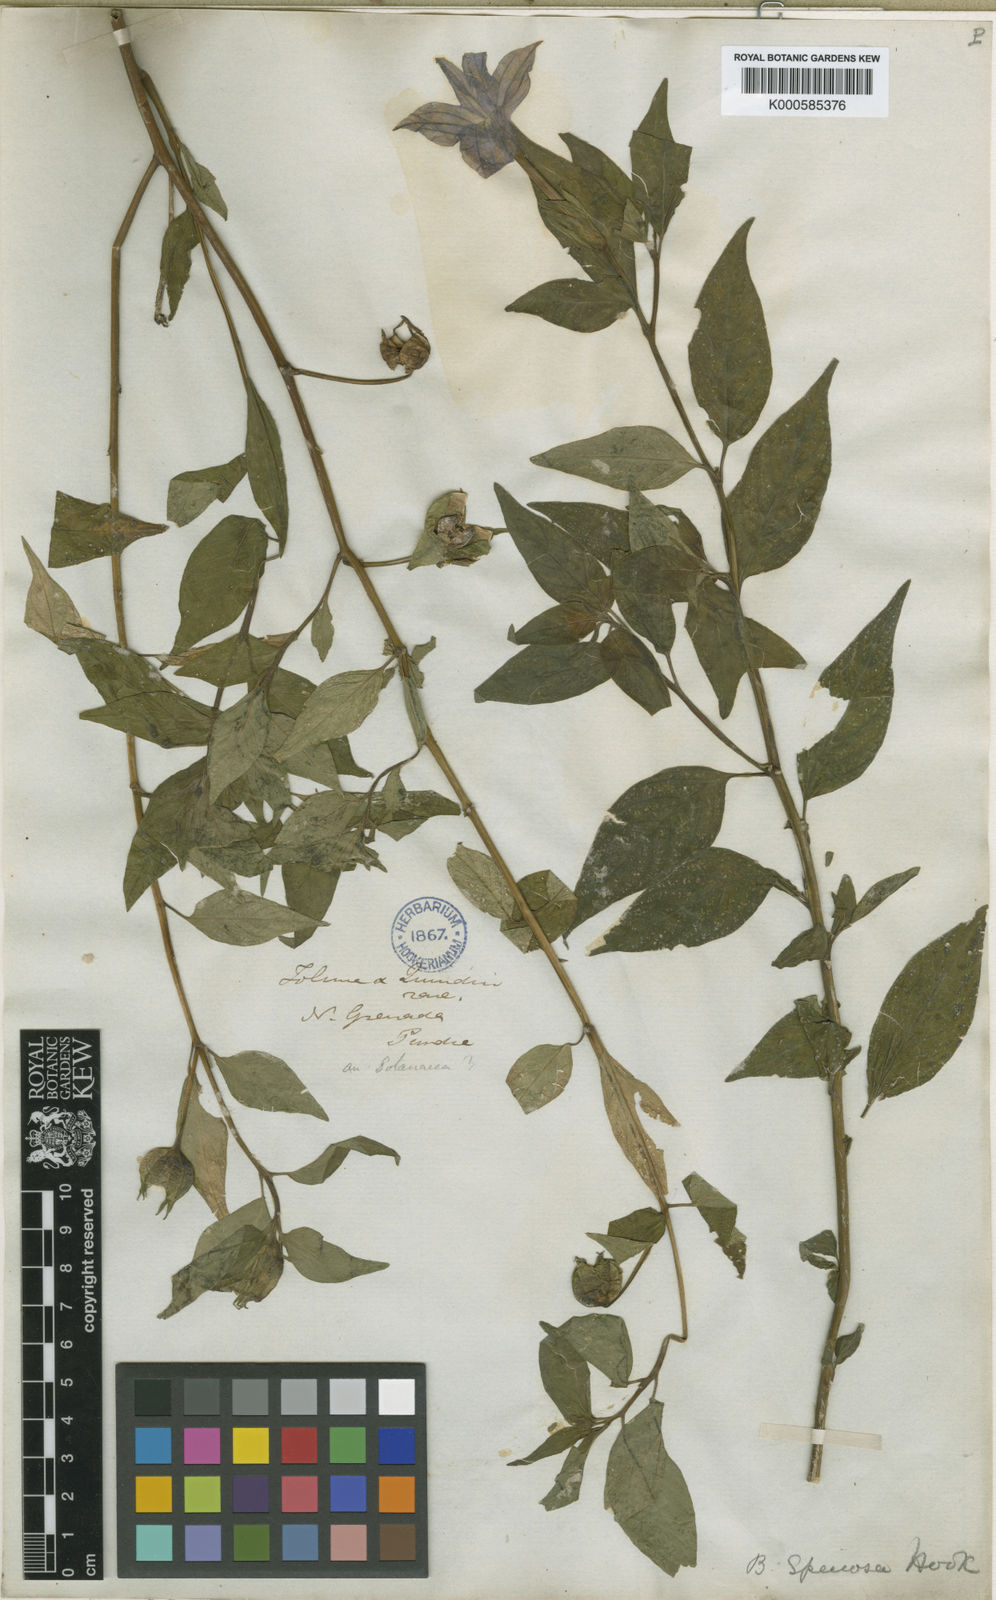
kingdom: Plantae
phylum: Tracheophyta
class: Magnoliopsida
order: Solanales
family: Solanaceae
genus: Browallia
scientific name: Browallia speciosa
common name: Bush-violet
